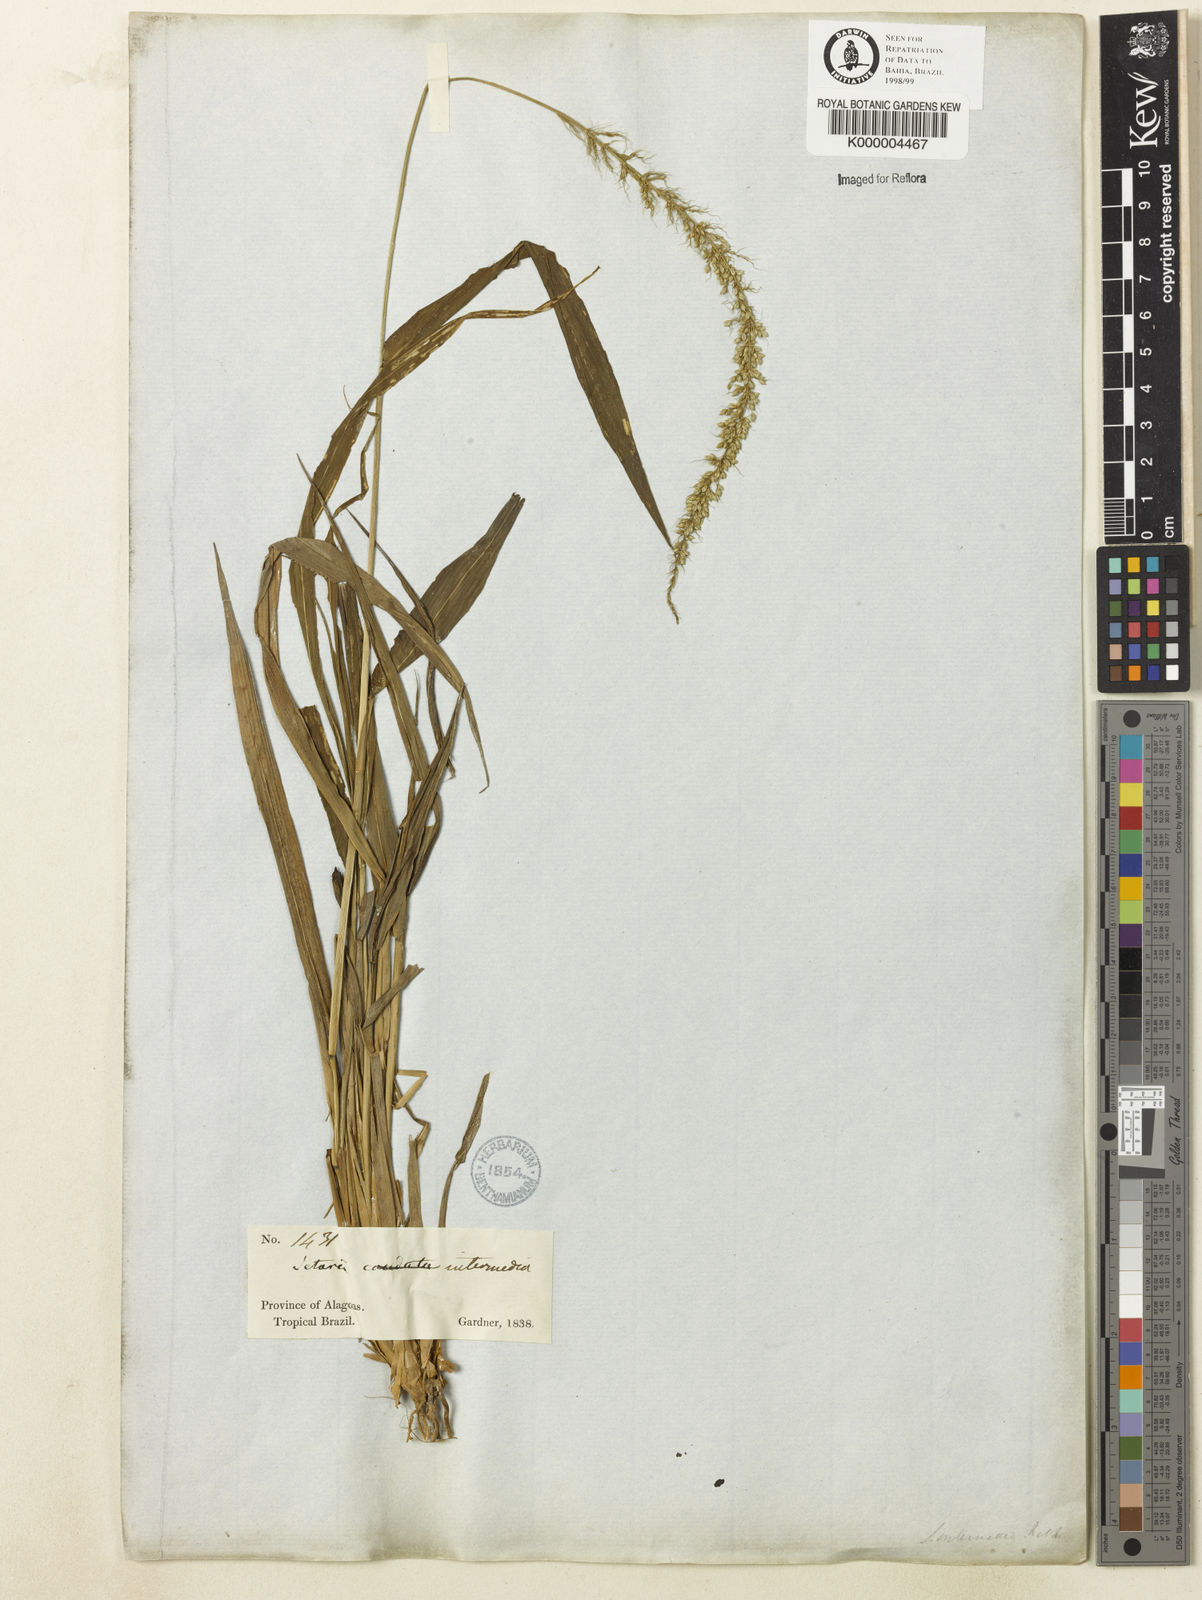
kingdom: Plantae
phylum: Tracheophyta
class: Liliopsida
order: Poales
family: Poaceae
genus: Setaria
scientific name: Setaria setosa
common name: West indies bristle grass
